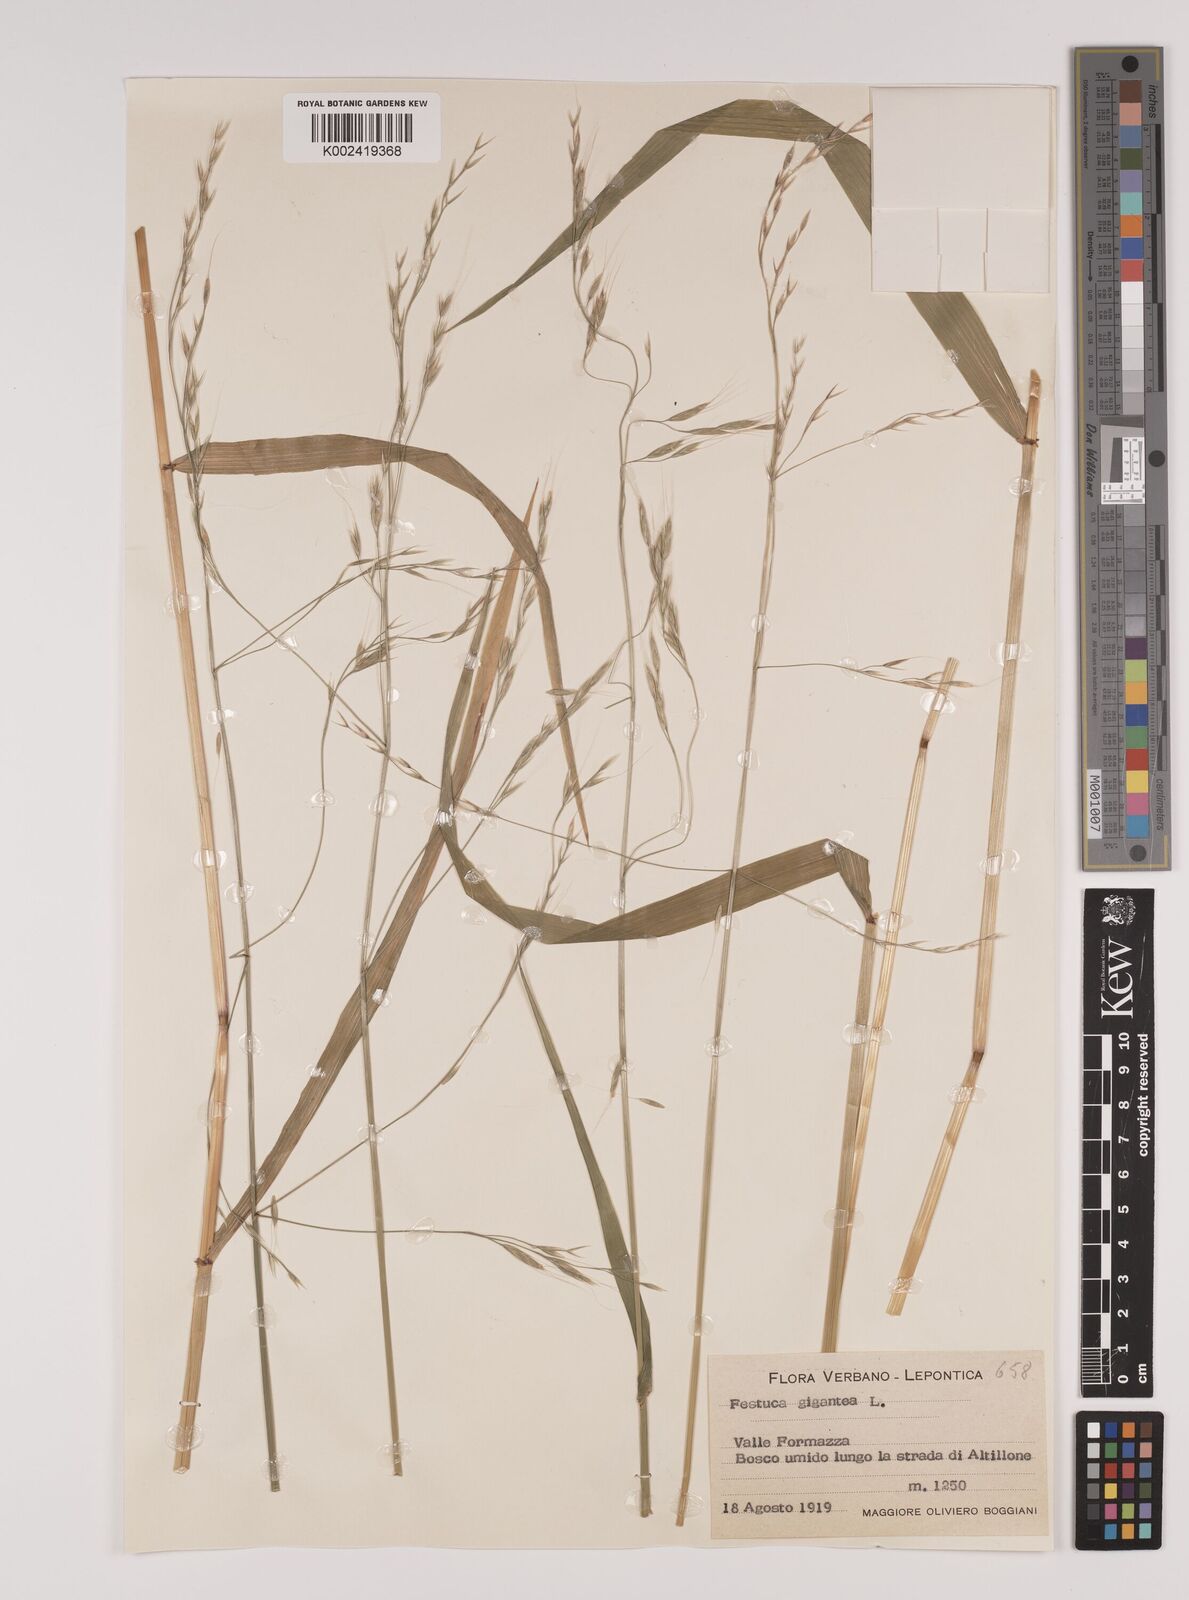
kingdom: Plantae
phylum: Tracheophyta
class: Liliopsida
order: Poales
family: Poaceae
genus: Lolium
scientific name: Lolium giganteum
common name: Giant fescue
